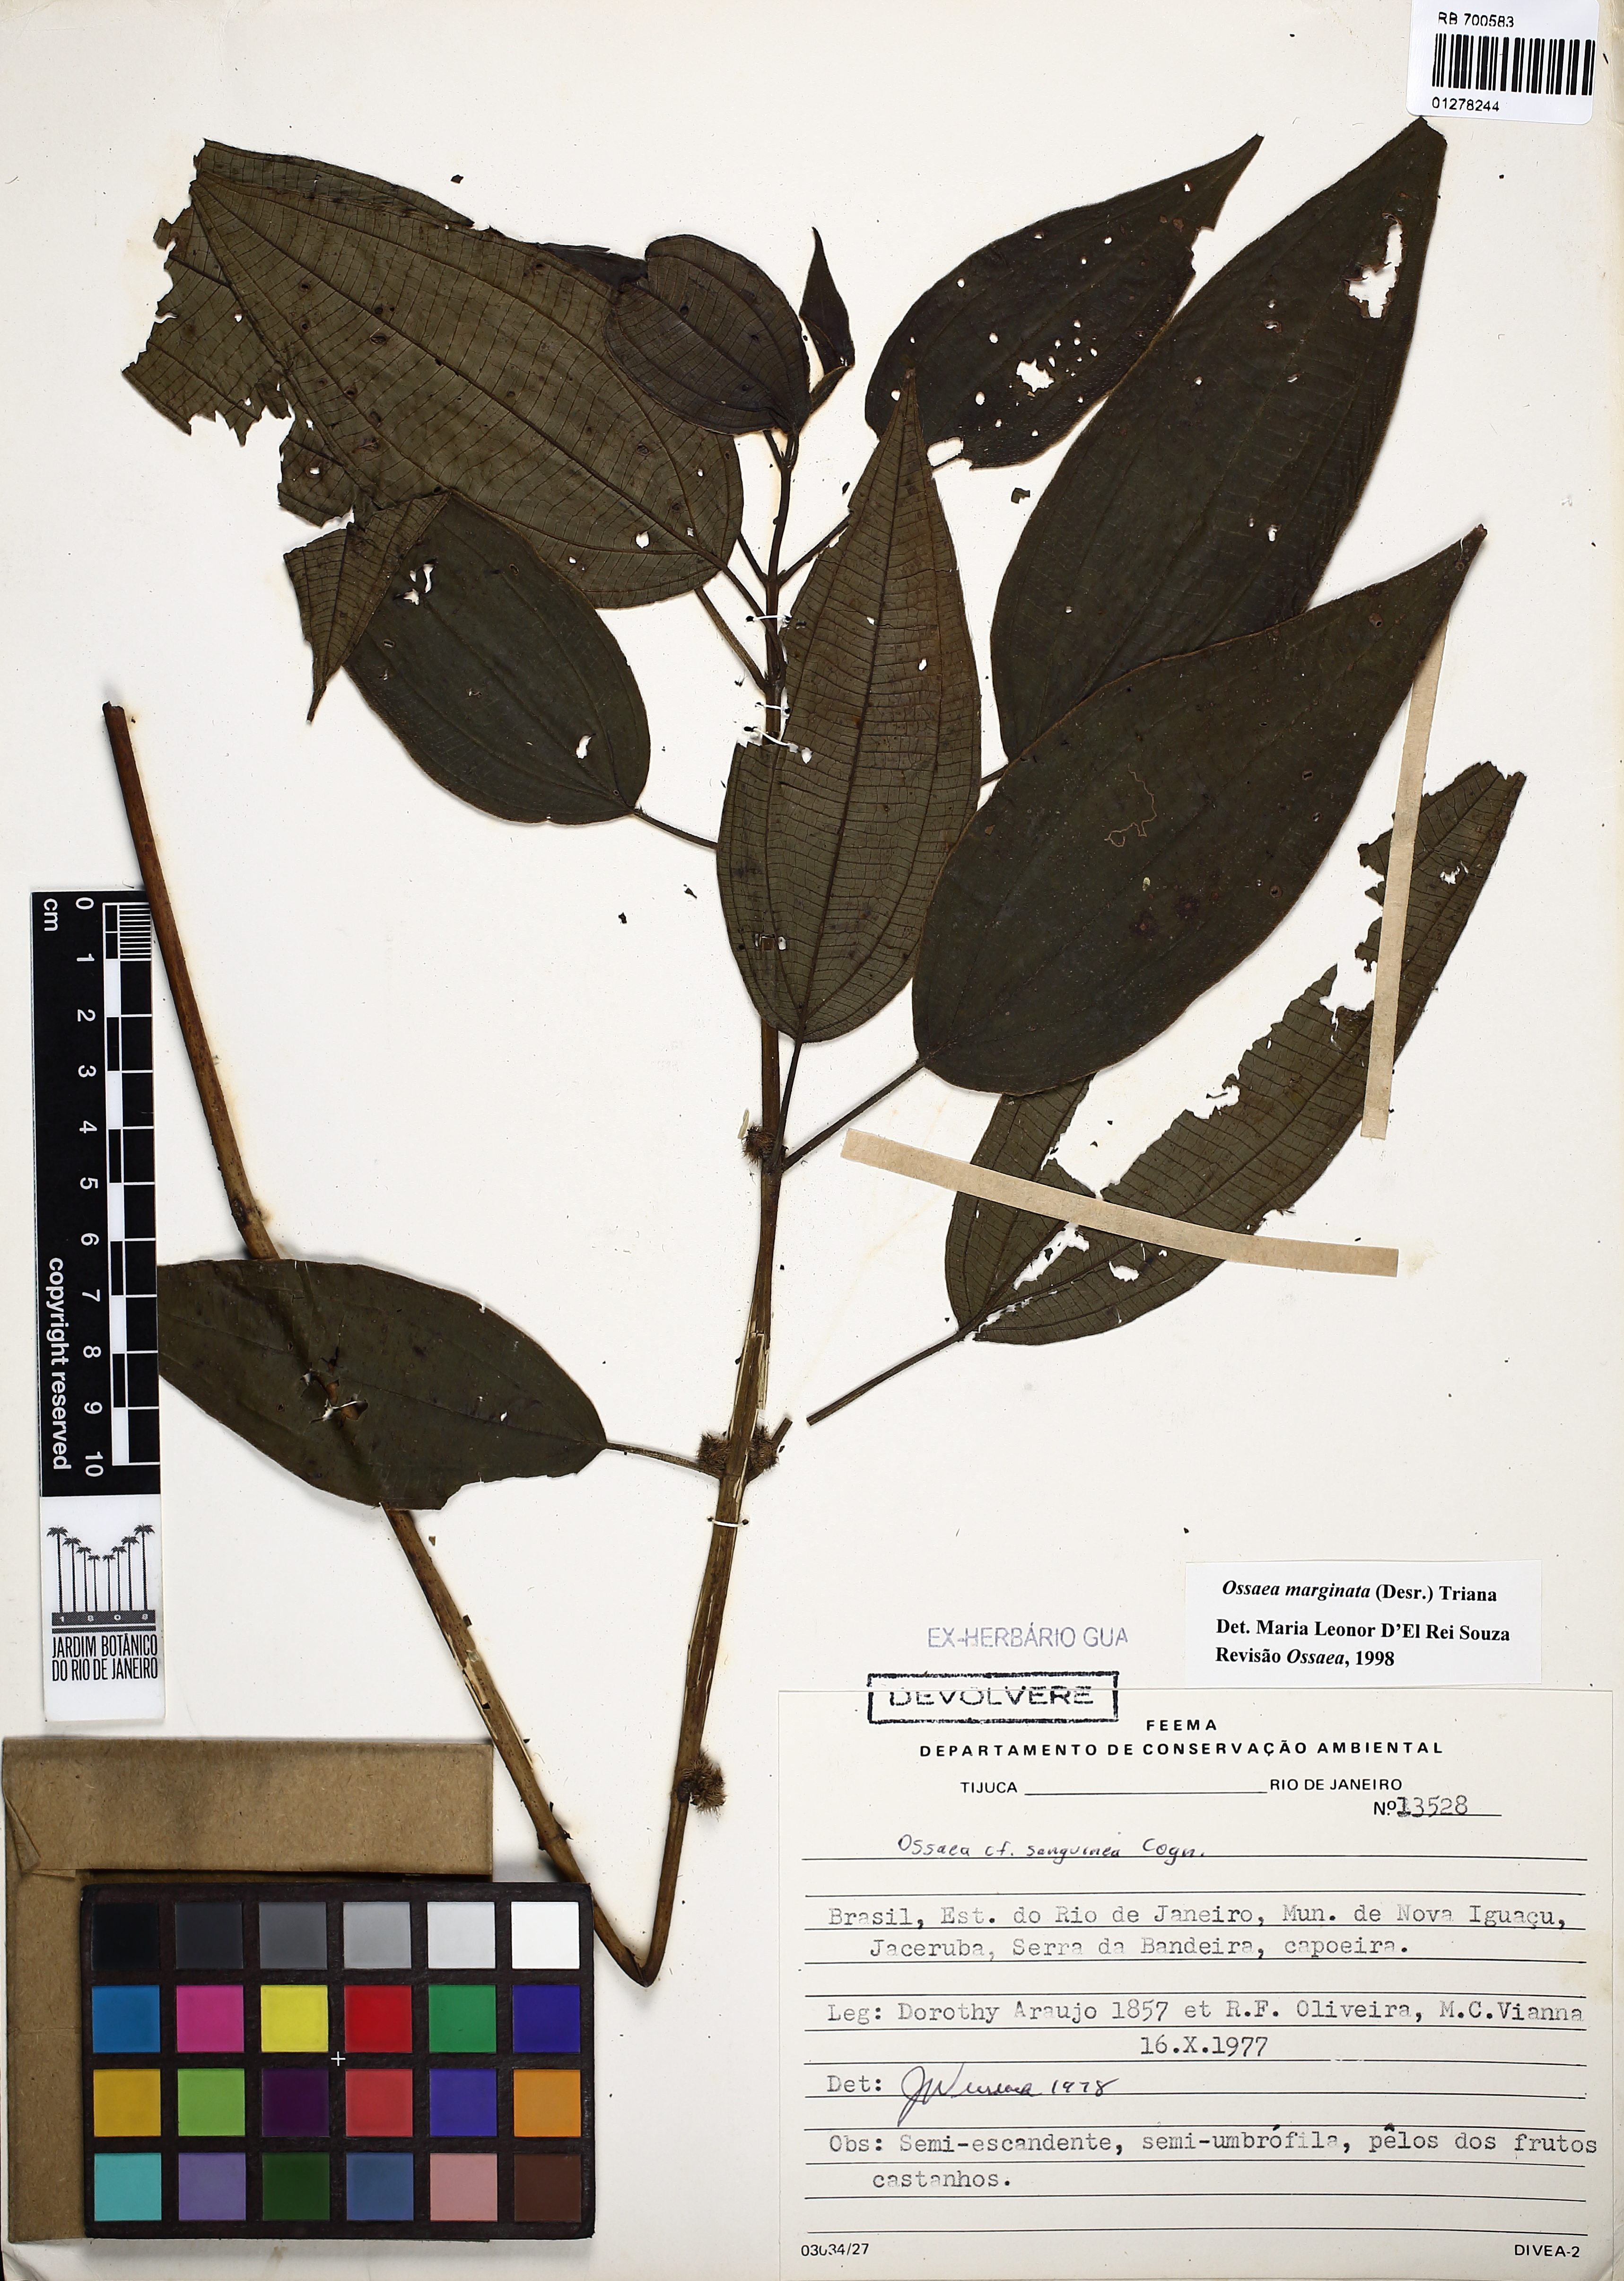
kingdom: Plantae
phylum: Tracheophyta
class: Magnoliopsida
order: Myrtales
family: Melastomataceae
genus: Miconia
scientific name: Miconia leamarginata
